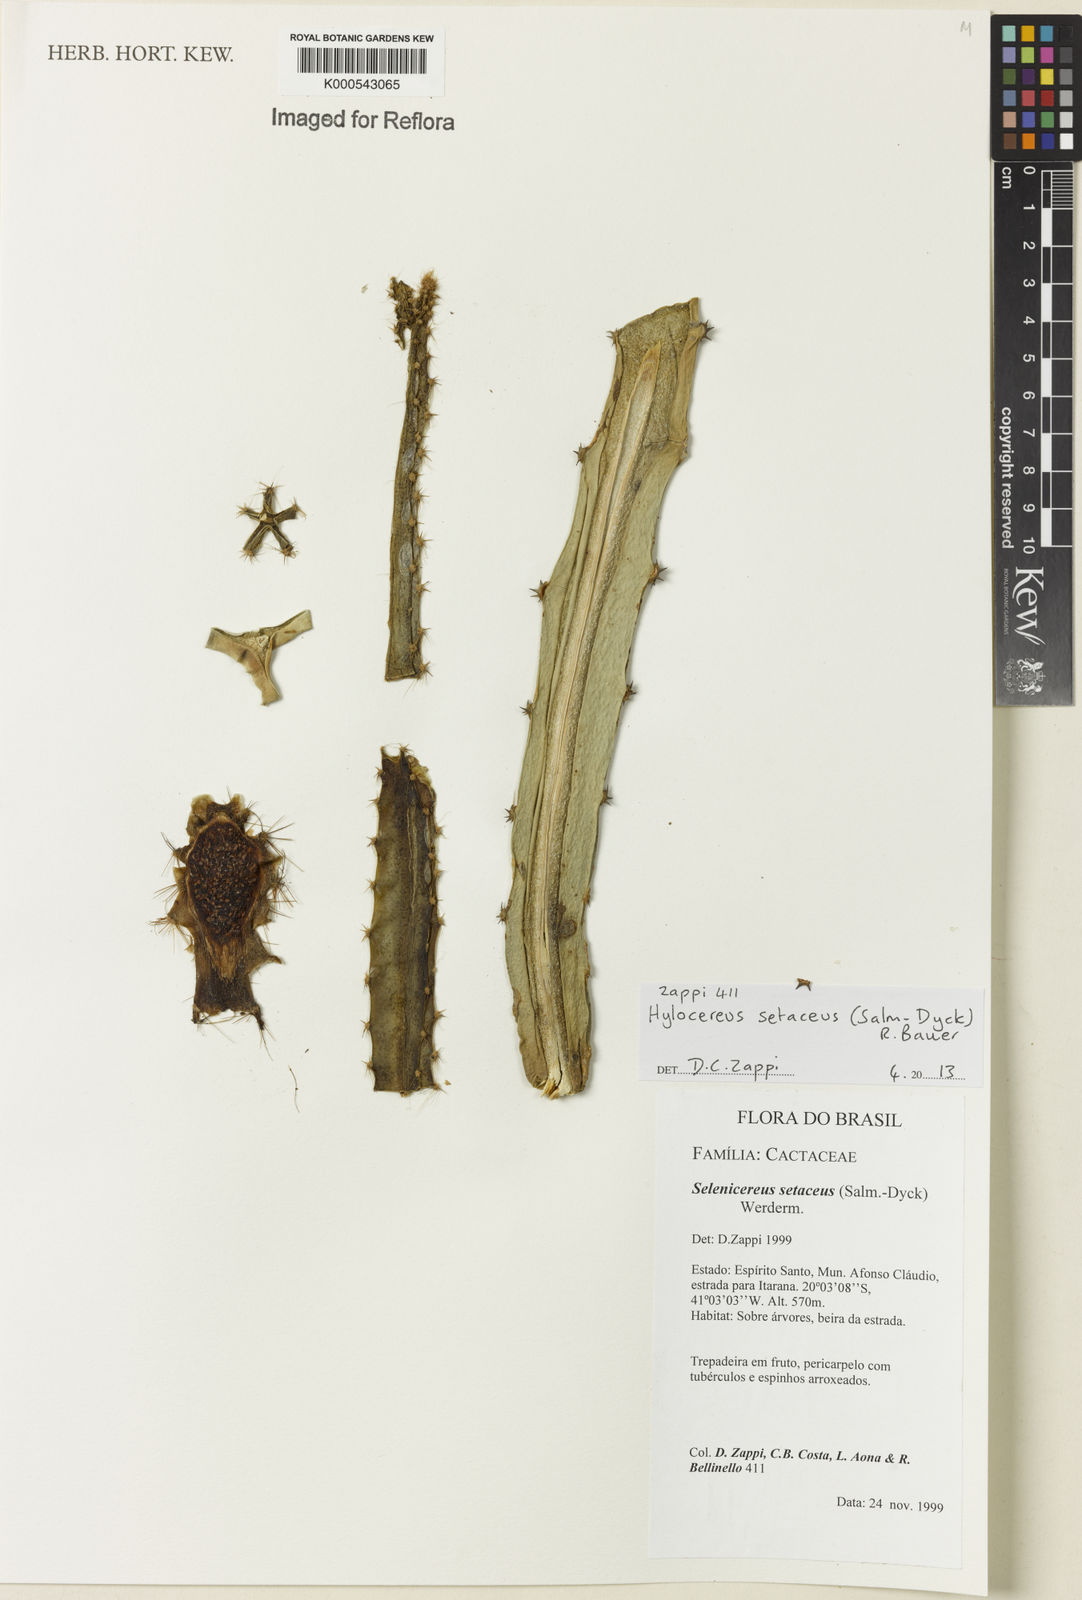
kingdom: Plantae
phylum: Tracheophyta
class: Magnoliopsida
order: Caryophyllales
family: Cactaceae
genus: Selenicereus
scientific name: Selenicereus setaceus
